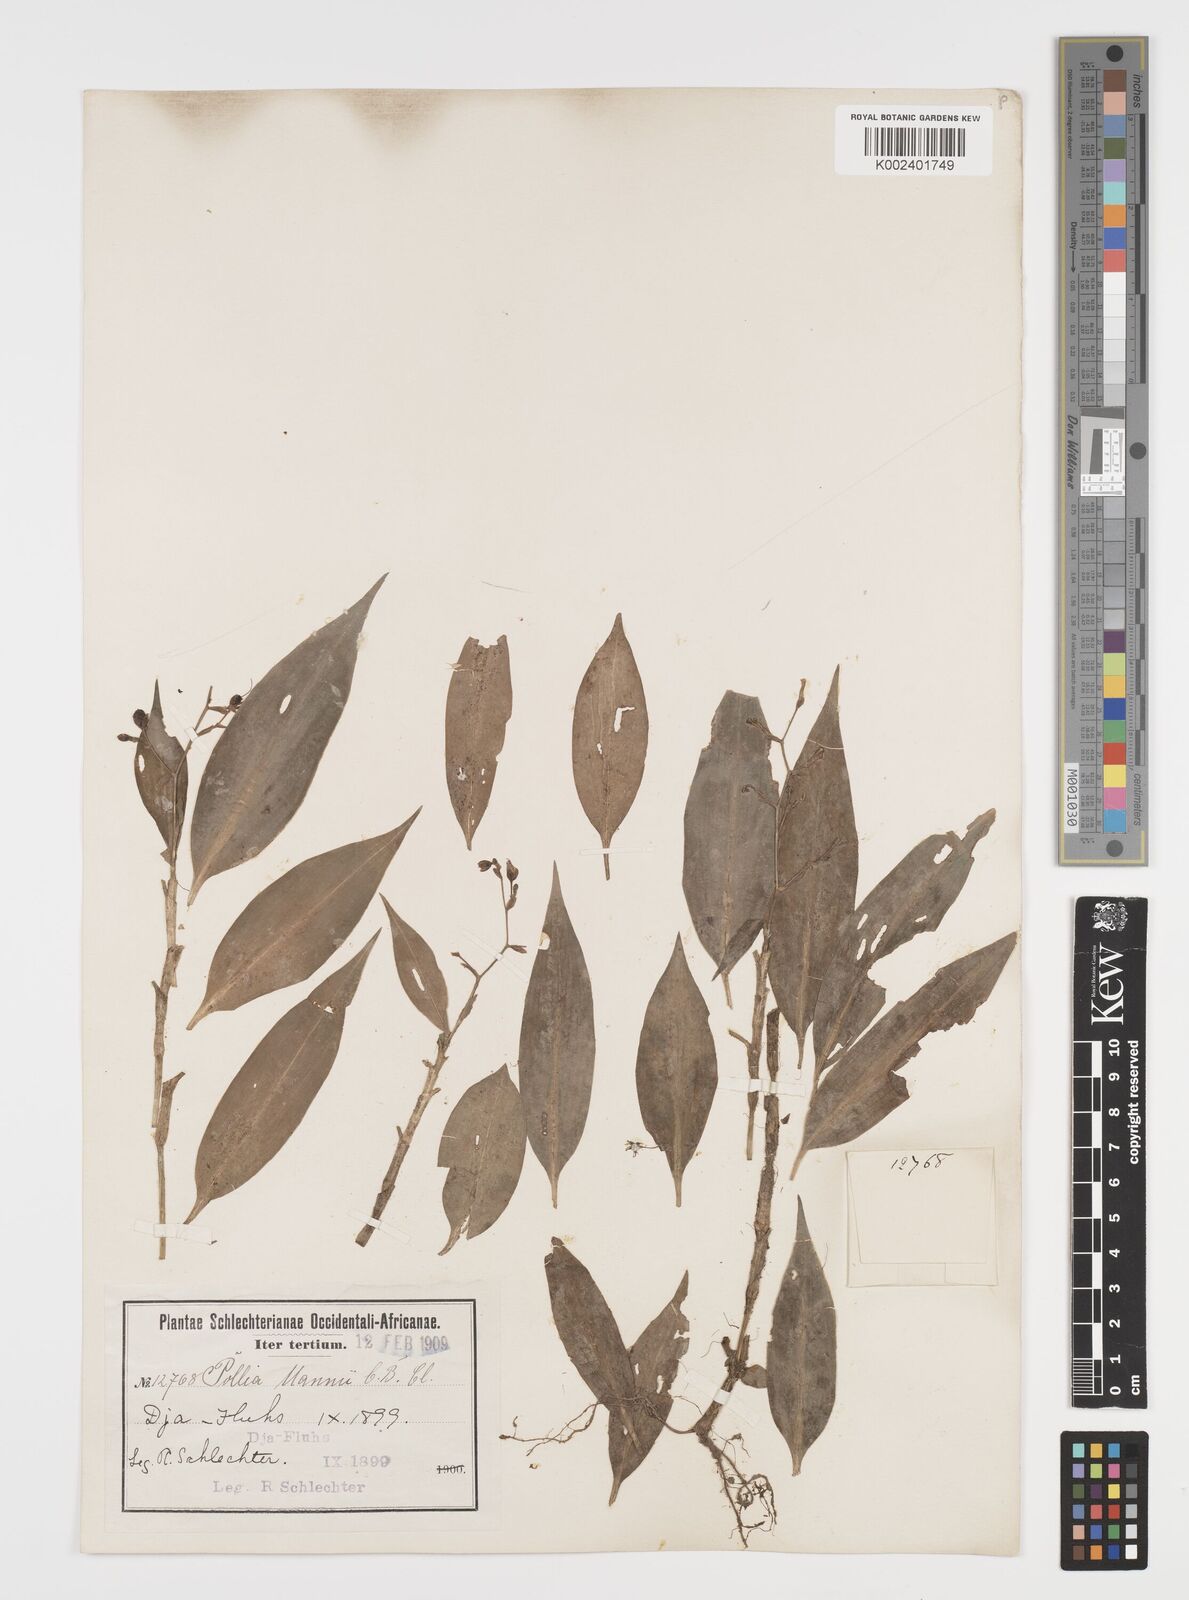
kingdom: Plantae
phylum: Tracheophyta
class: Liliopsida
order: Commelinales
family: Commelinaceae
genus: Pollia
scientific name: Pollia mannii
